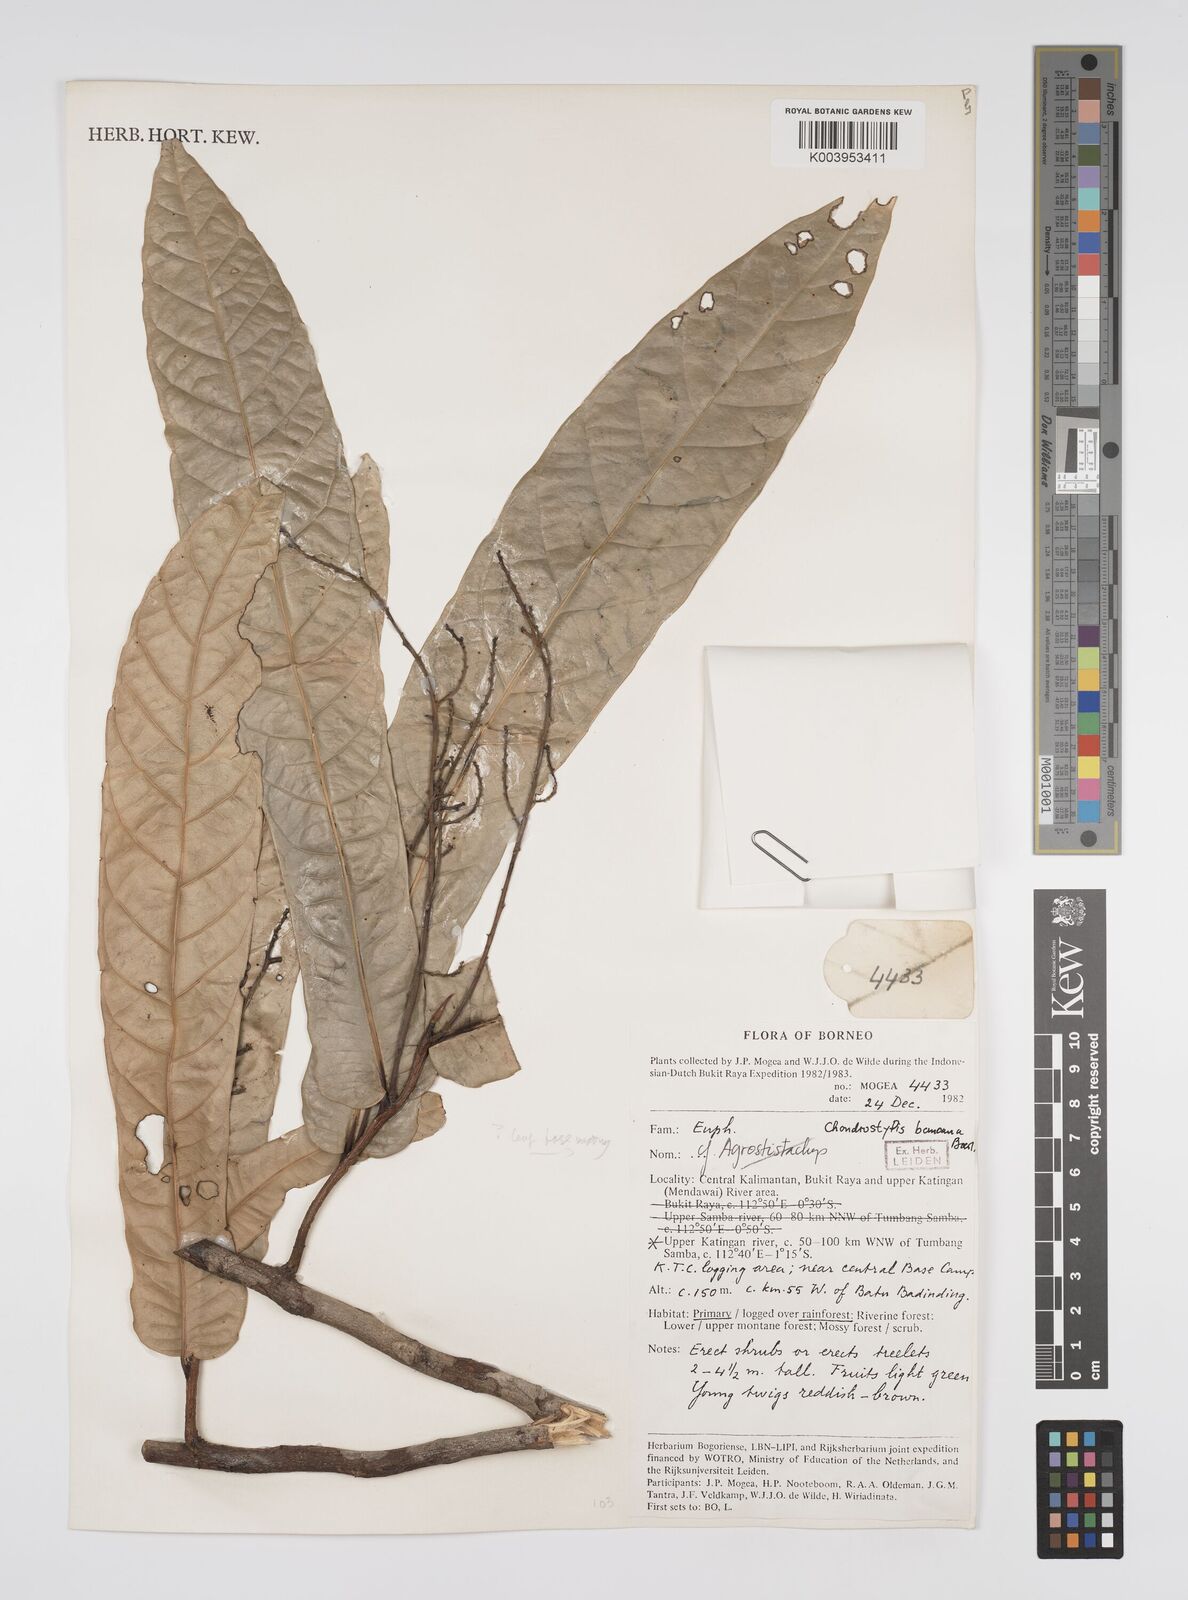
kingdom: Plantae
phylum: Tracheophyta
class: Magnoliopsida
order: Malpighiales
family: Euphorbiaceae
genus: Chondrostylis
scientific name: Chondrostylis bancana
